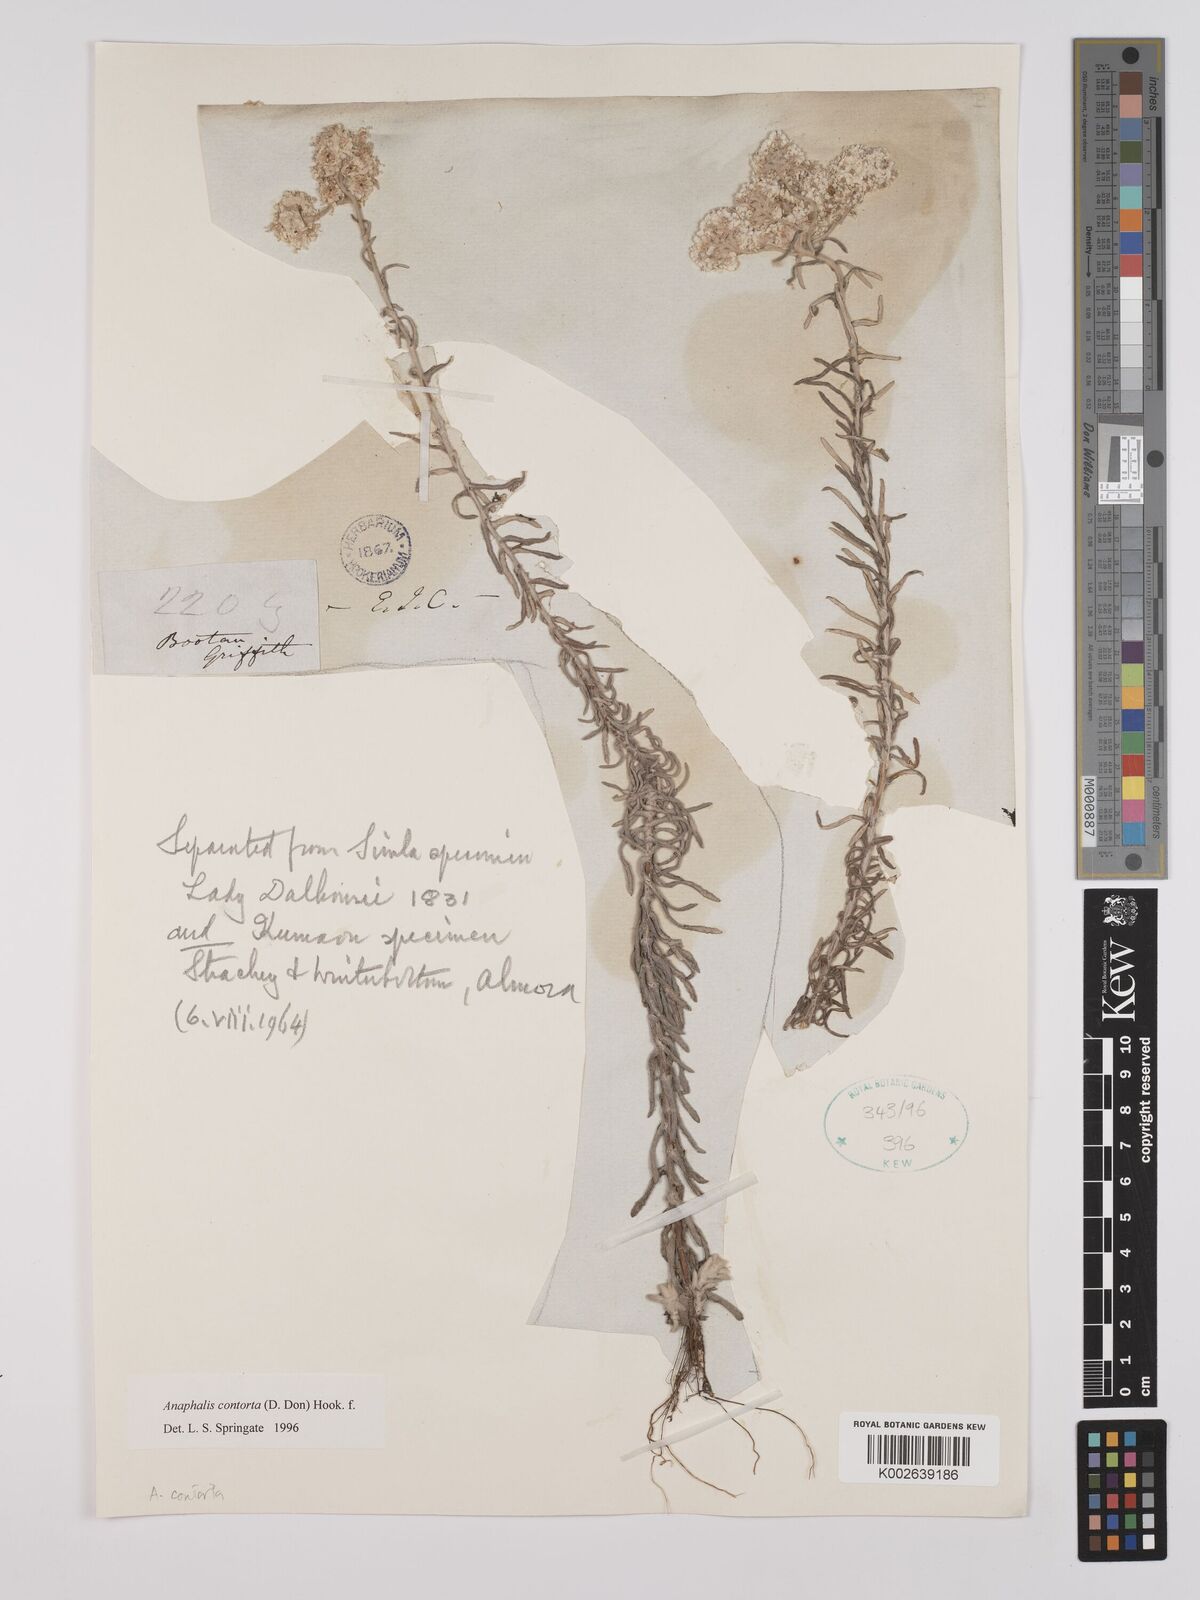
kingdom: Plantae
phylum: Tracheophyta
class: Magnoliopsida
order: Asterales
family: Asteraceae
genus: Anaphalis
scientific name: Anaphalis contorta
